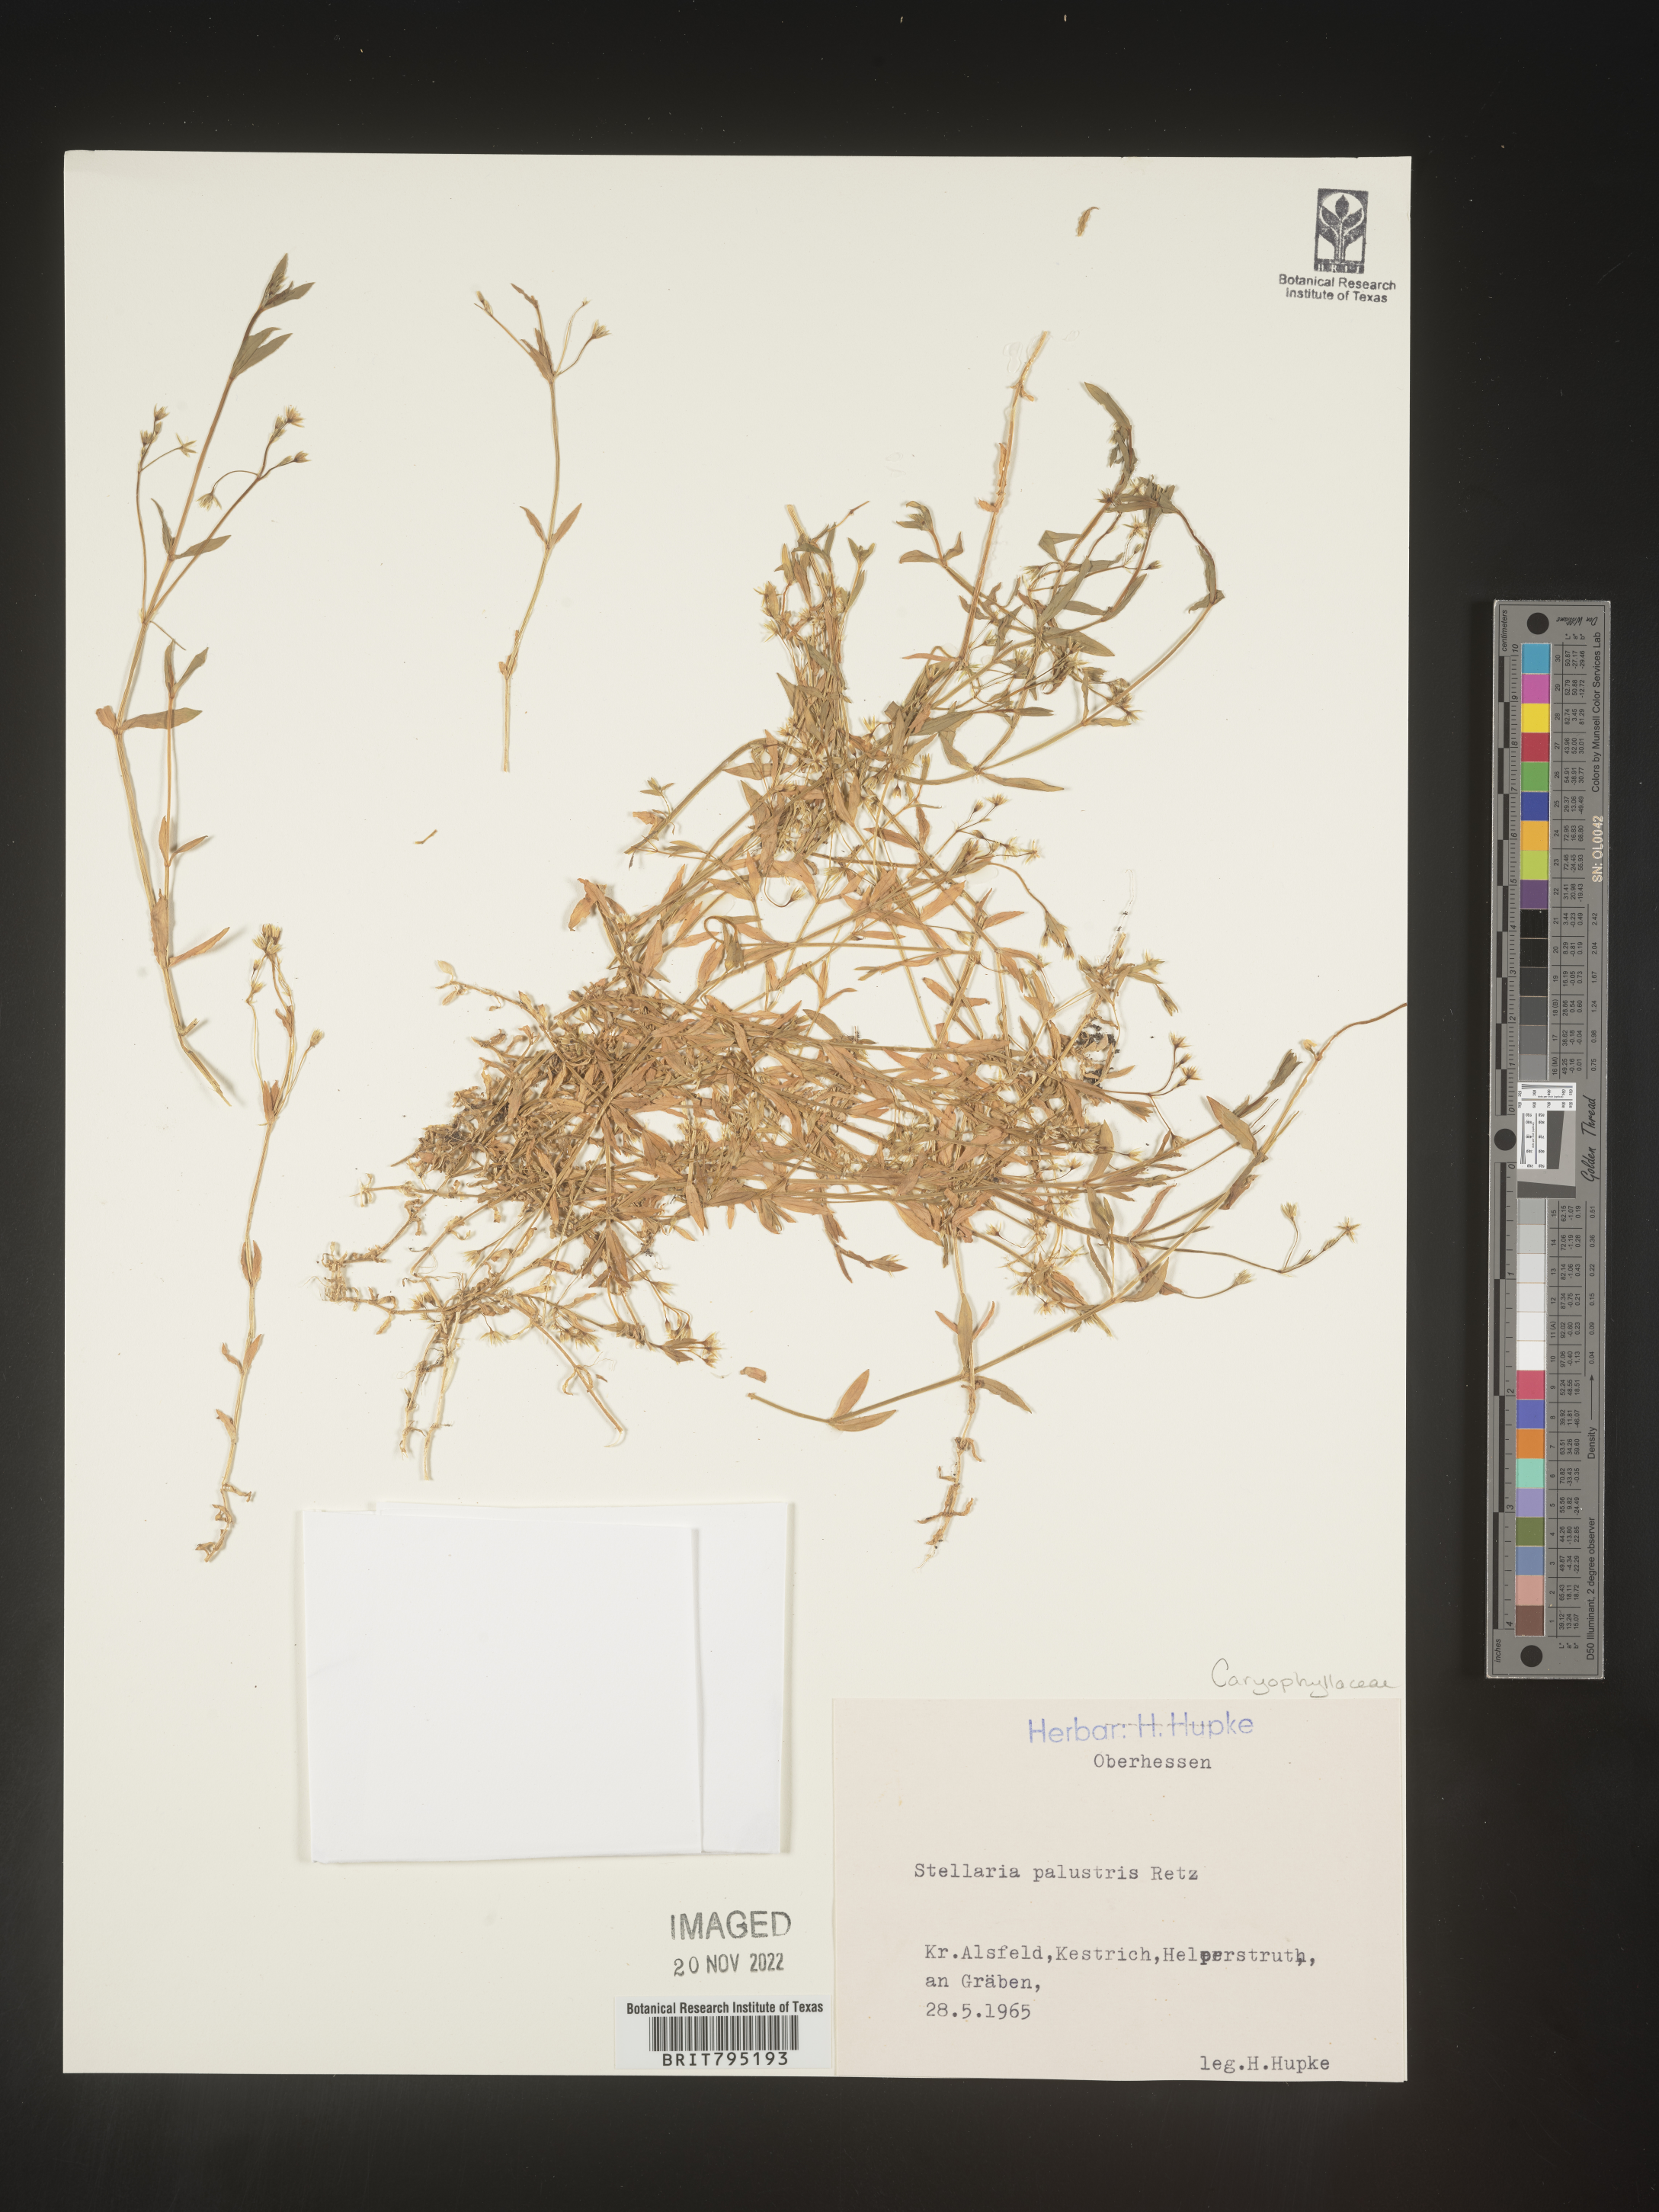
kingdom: Plantae
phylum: Tracheophyta
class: Magnoliopsida
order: Caryophyllales
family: Caryophyllaceae
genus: Stellaria
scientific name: Stellaria
